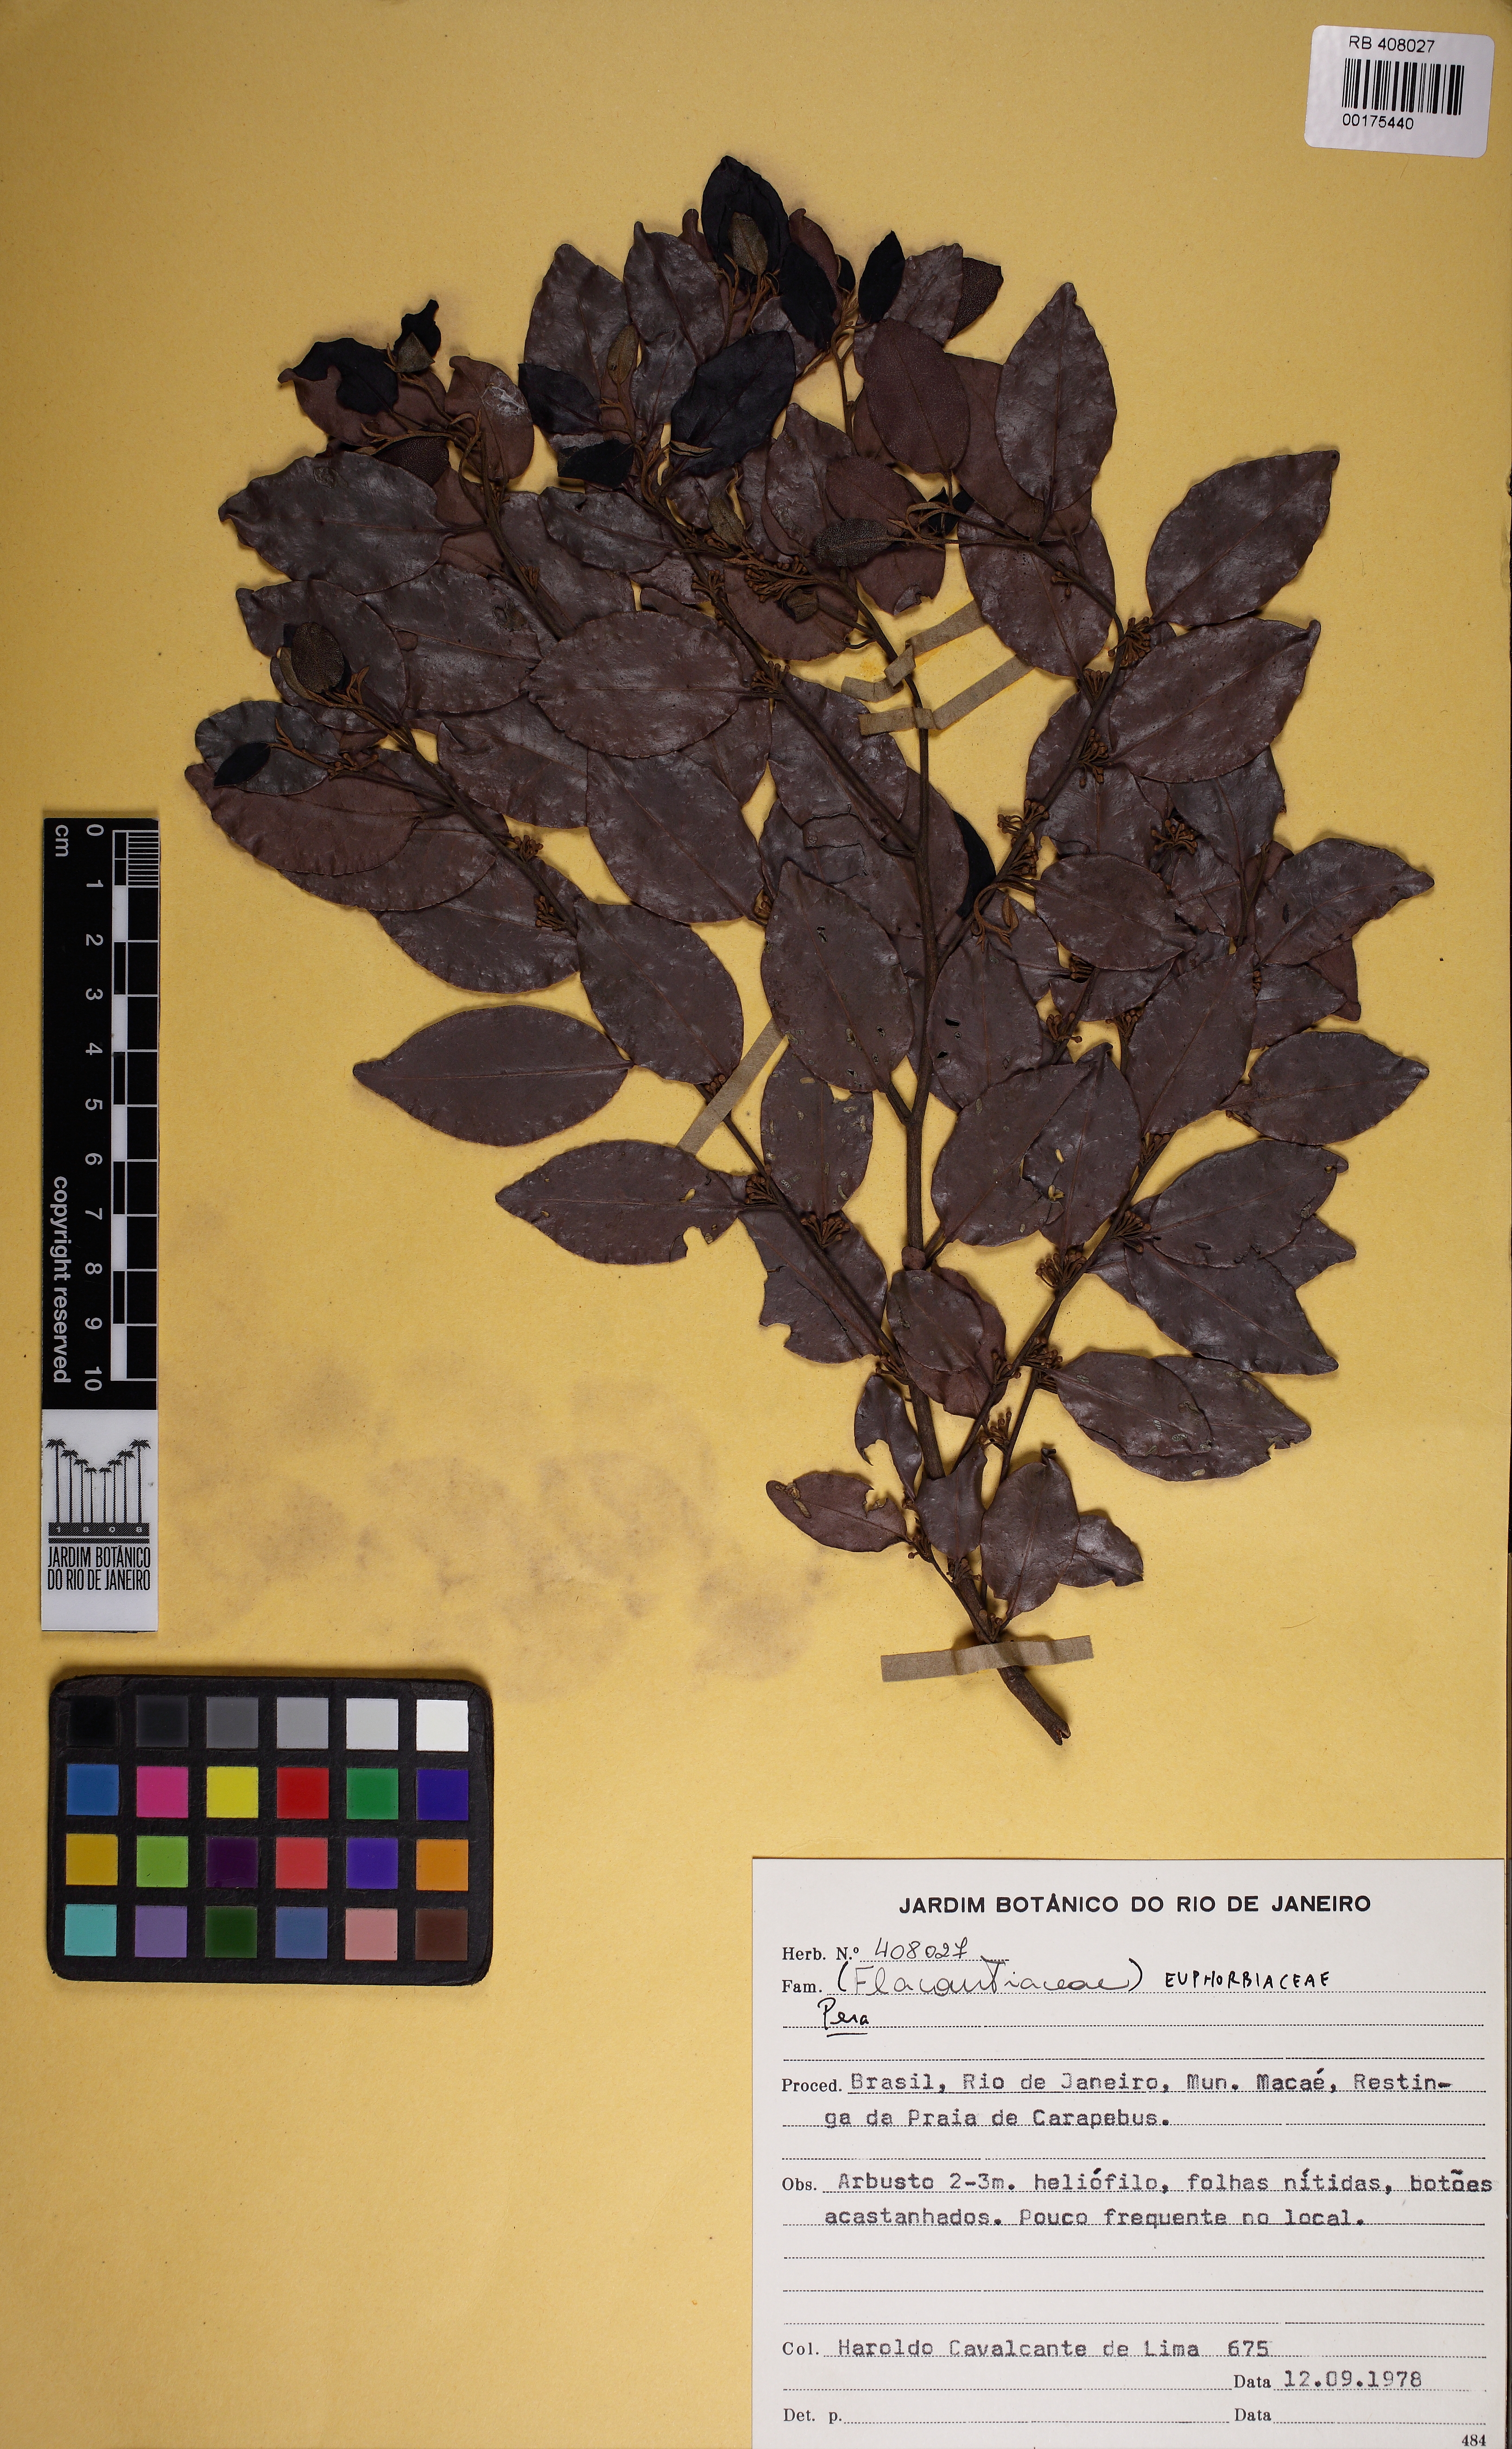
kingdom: Plantae
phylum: Tracheophyta
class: Magnoliopsida
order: Malpighiales
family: Peraceae
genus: Pera
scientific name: Pera glabrata
